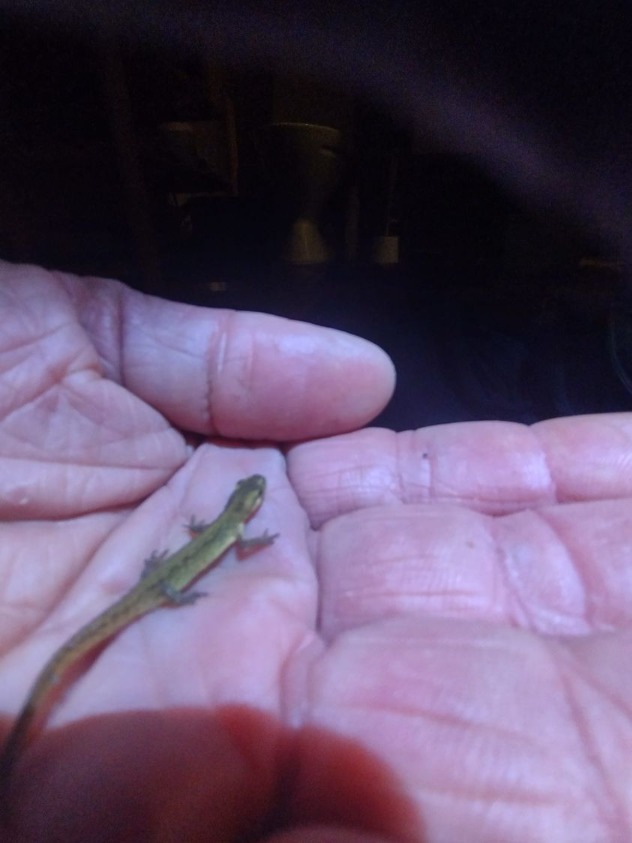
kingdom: Animalia
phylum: Chordata
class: Amphibia
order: Caudata
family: Salamandridae
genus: Lissotriton
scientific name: Lissotriton vulgaris
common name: Lille vandsalamander
